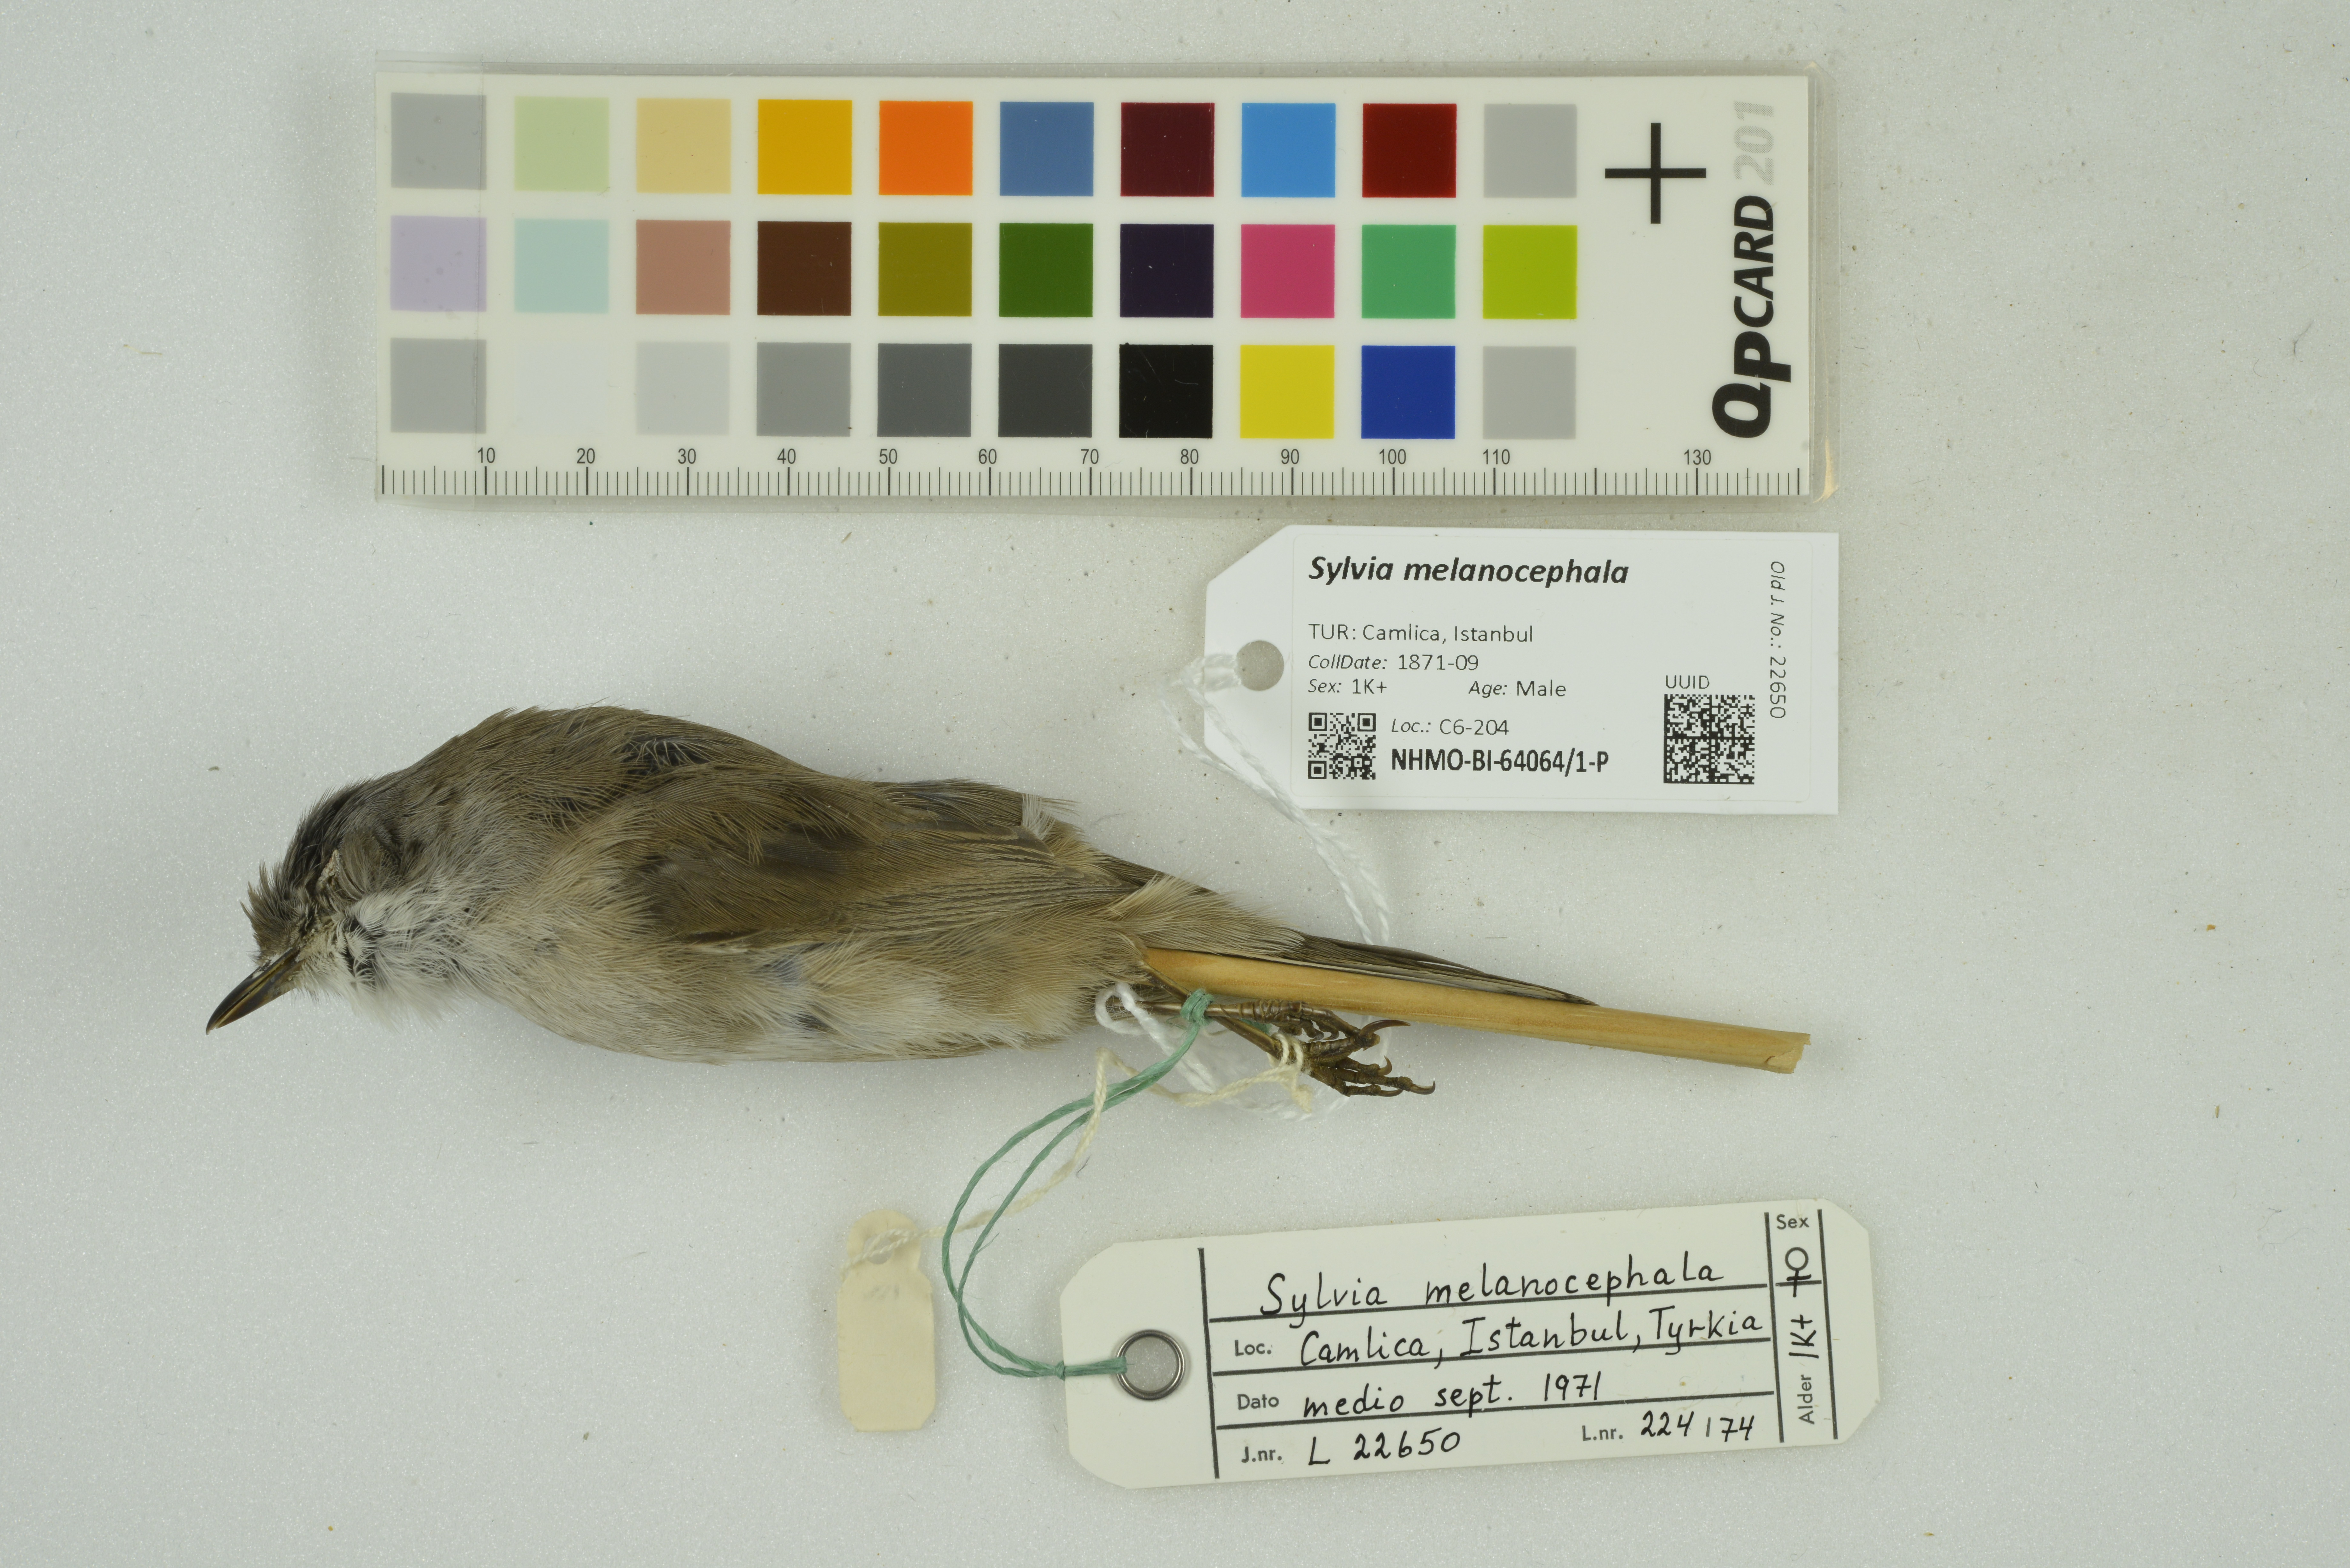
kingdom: Animalia
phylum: Chordata
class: Aves
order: Passeriformes
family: Sylviidae
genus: Curruca
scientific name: Curruca melanocephala
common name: Sardinian warbler
